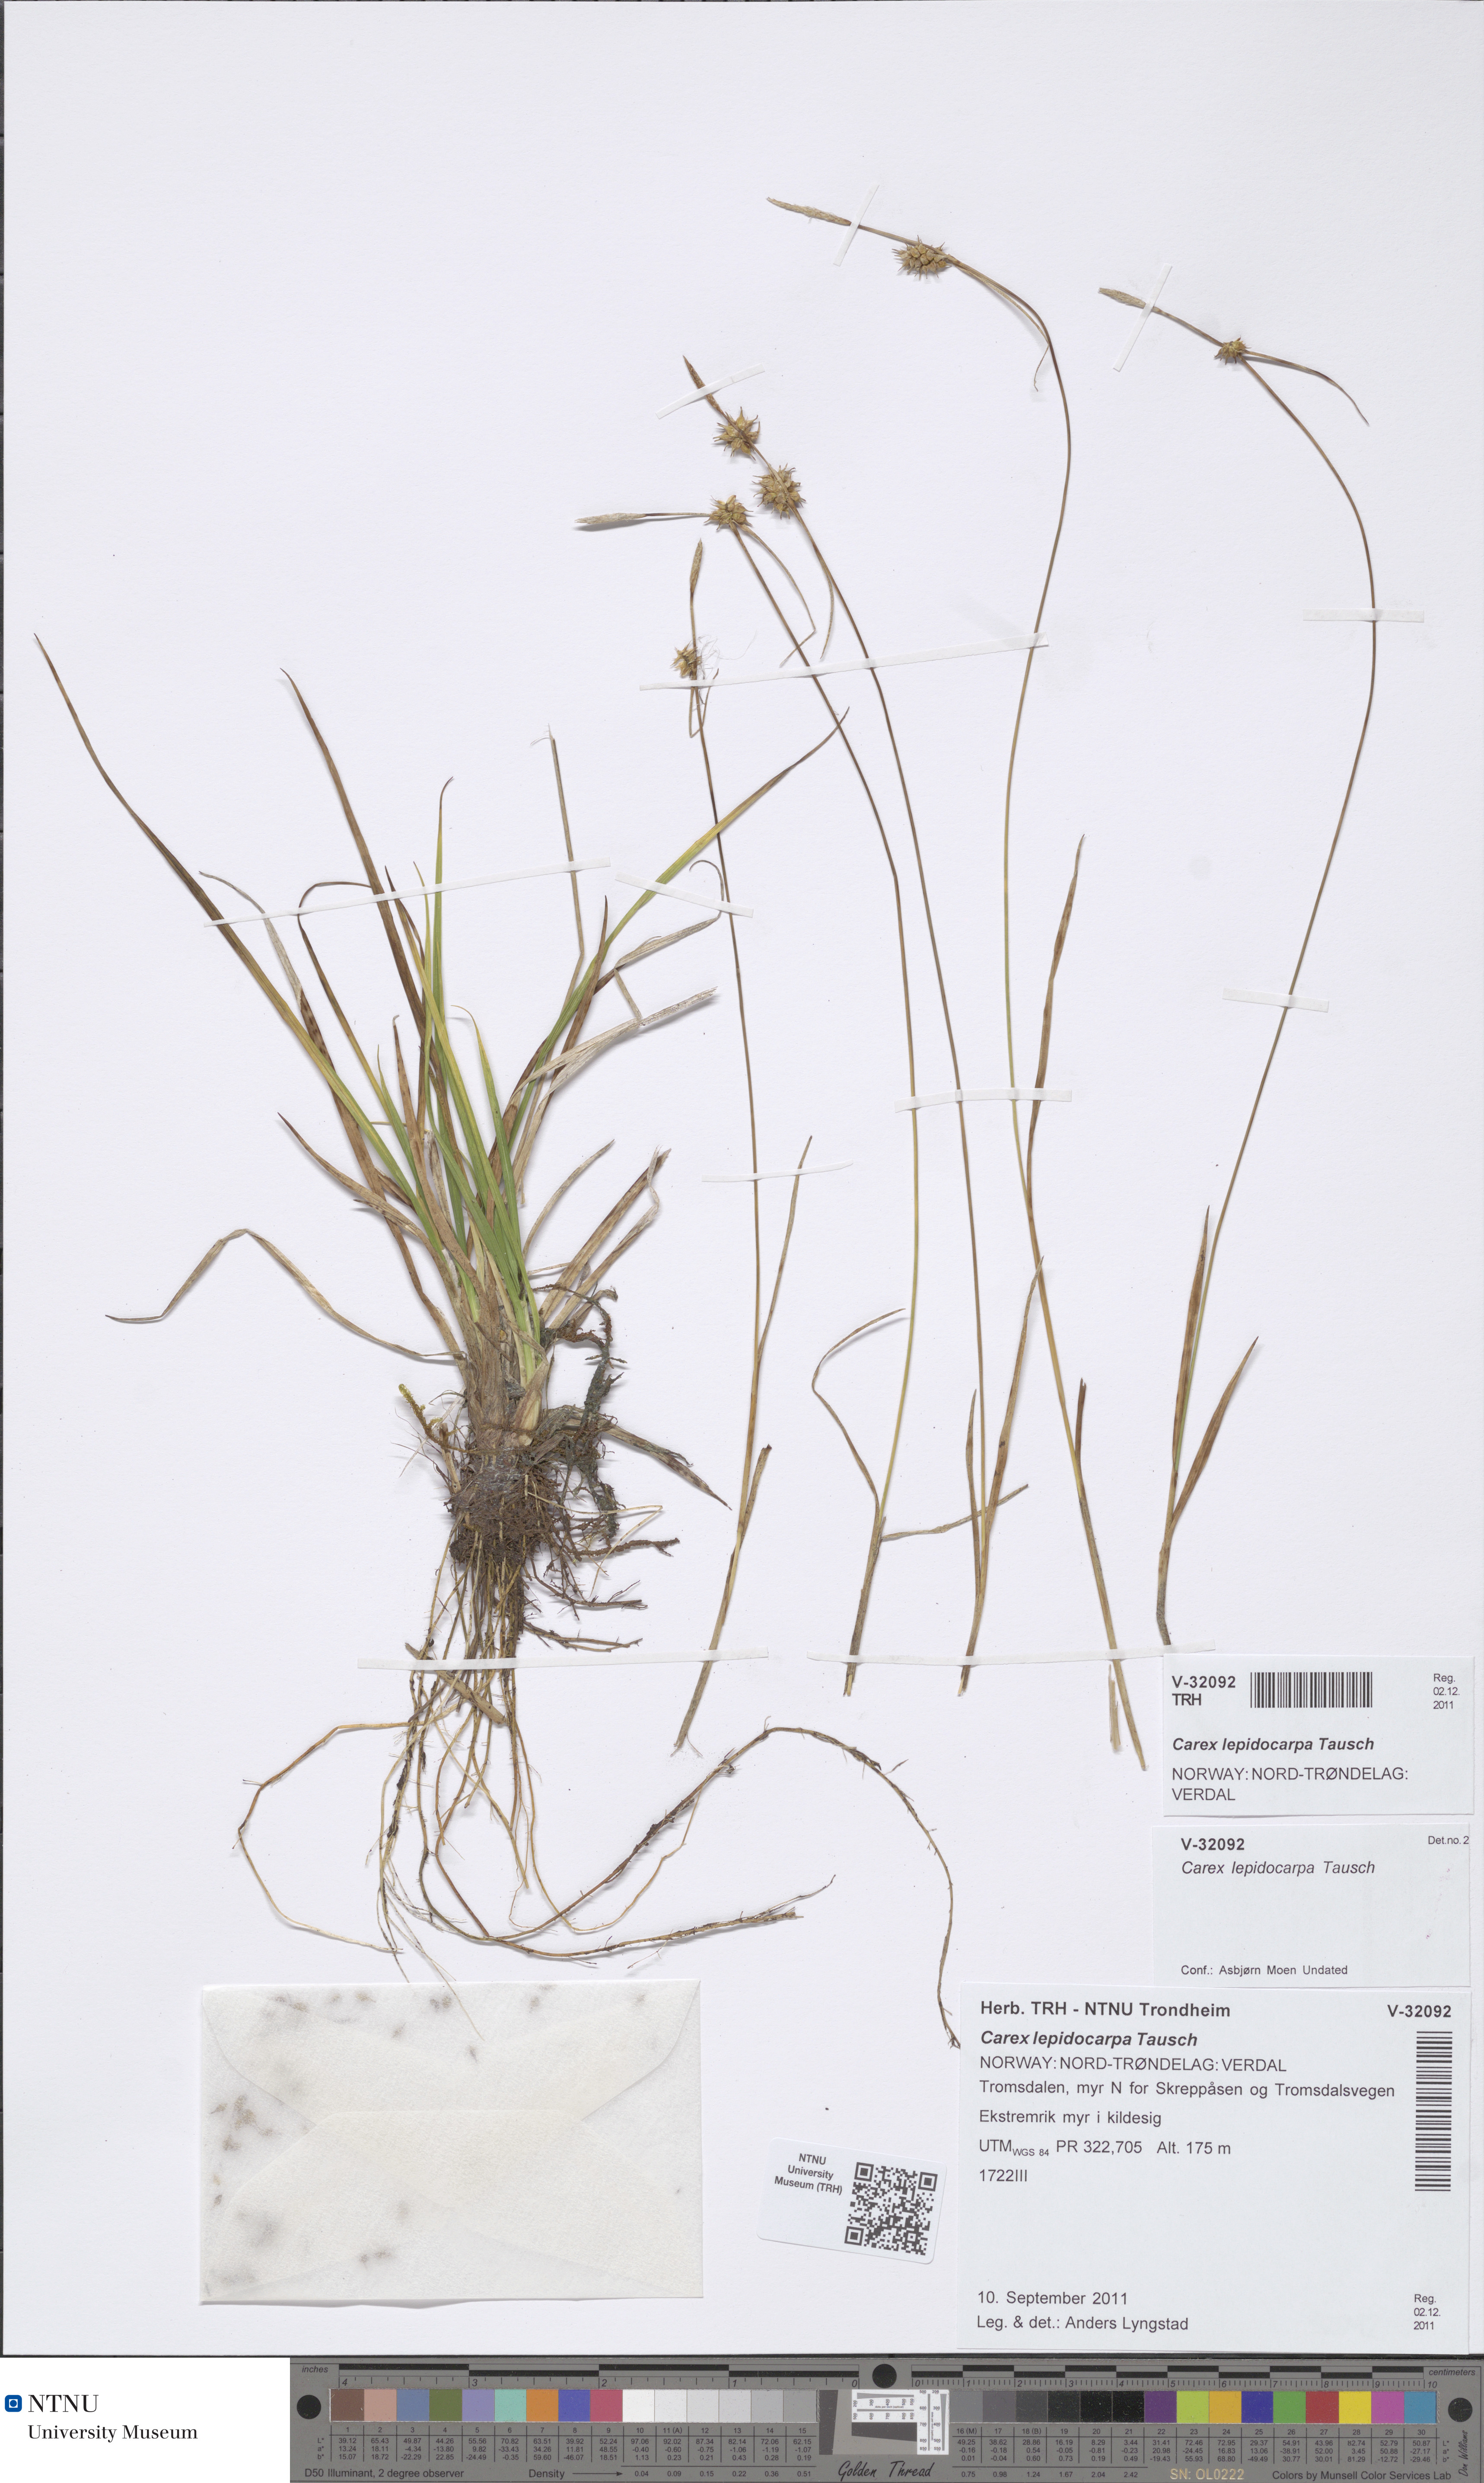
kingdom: Plantae
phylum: Tracheophyta
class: Liliopsida
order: Poales
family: Cyperaceae
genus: Carex
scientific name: Carex lepidocarpa
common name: Long-stalked yellow-sedge
